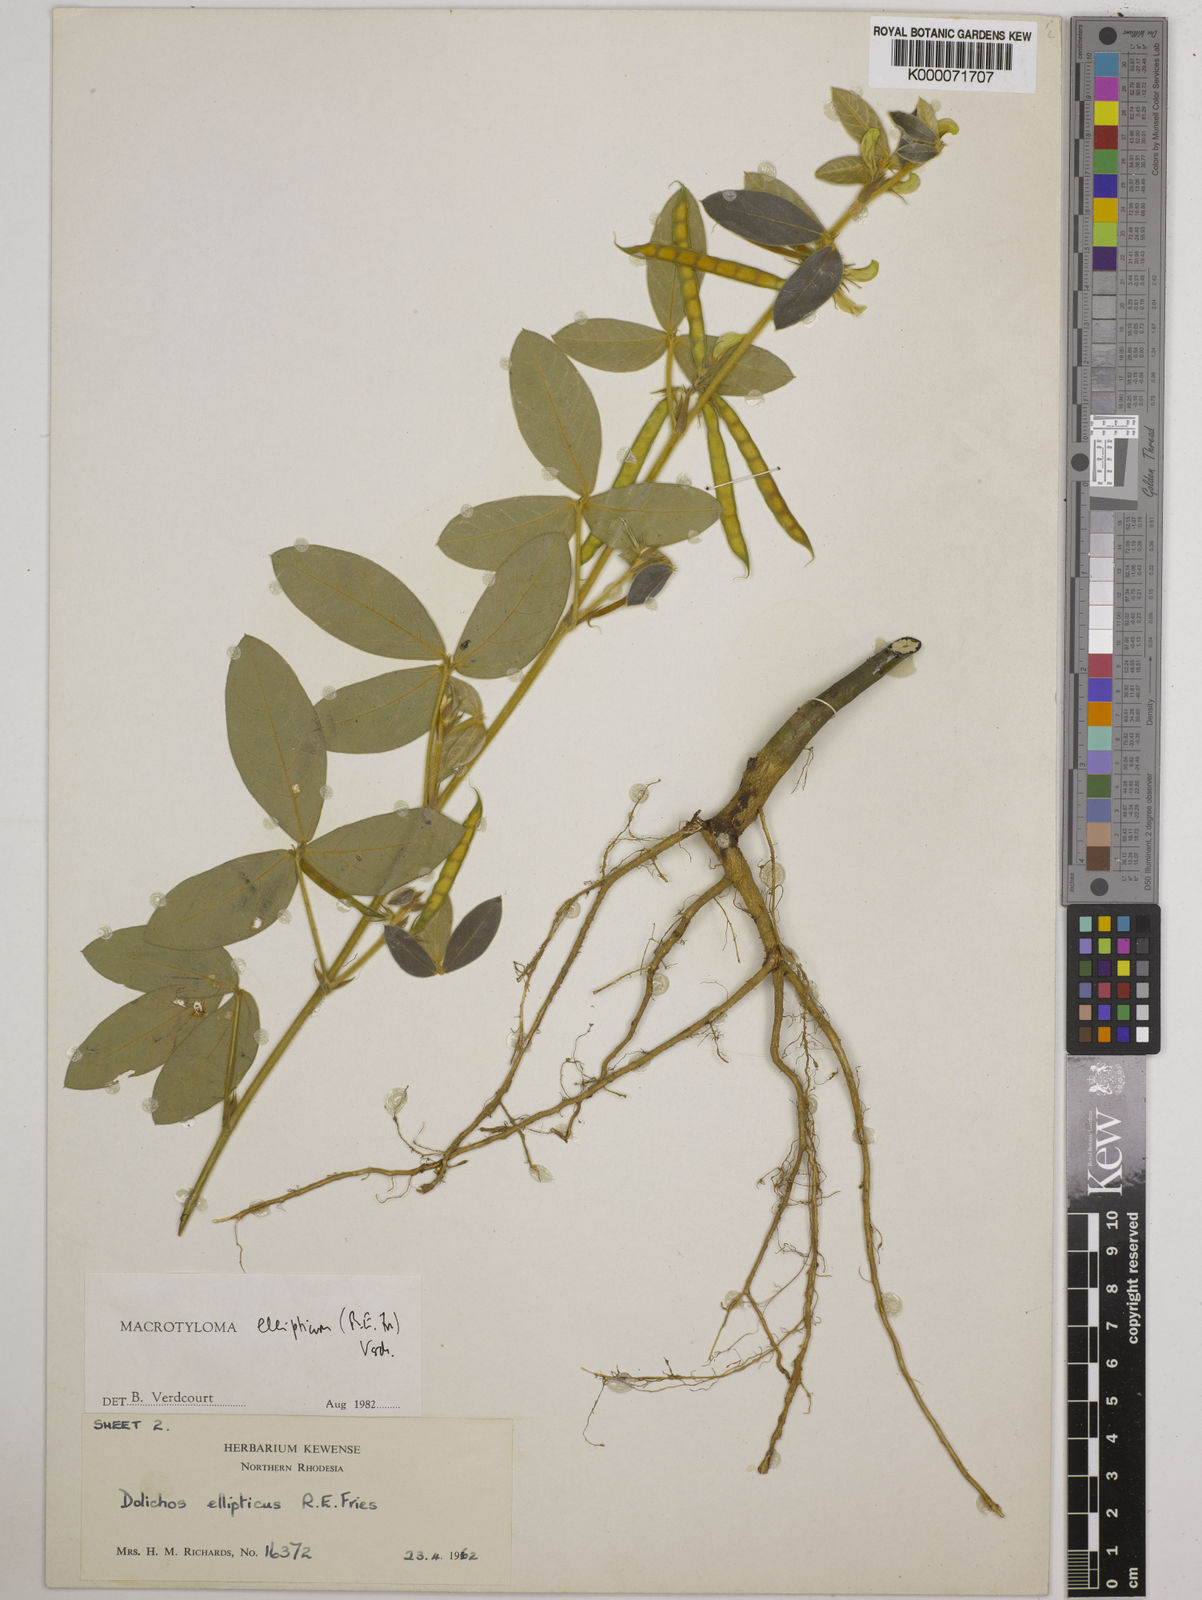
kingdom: Plantae
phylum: Tracheophyta
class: Magnoliopsida
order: Fabales
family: Fabaceae
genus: Macrotyloma
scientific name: Macrotyloma ellipticum
